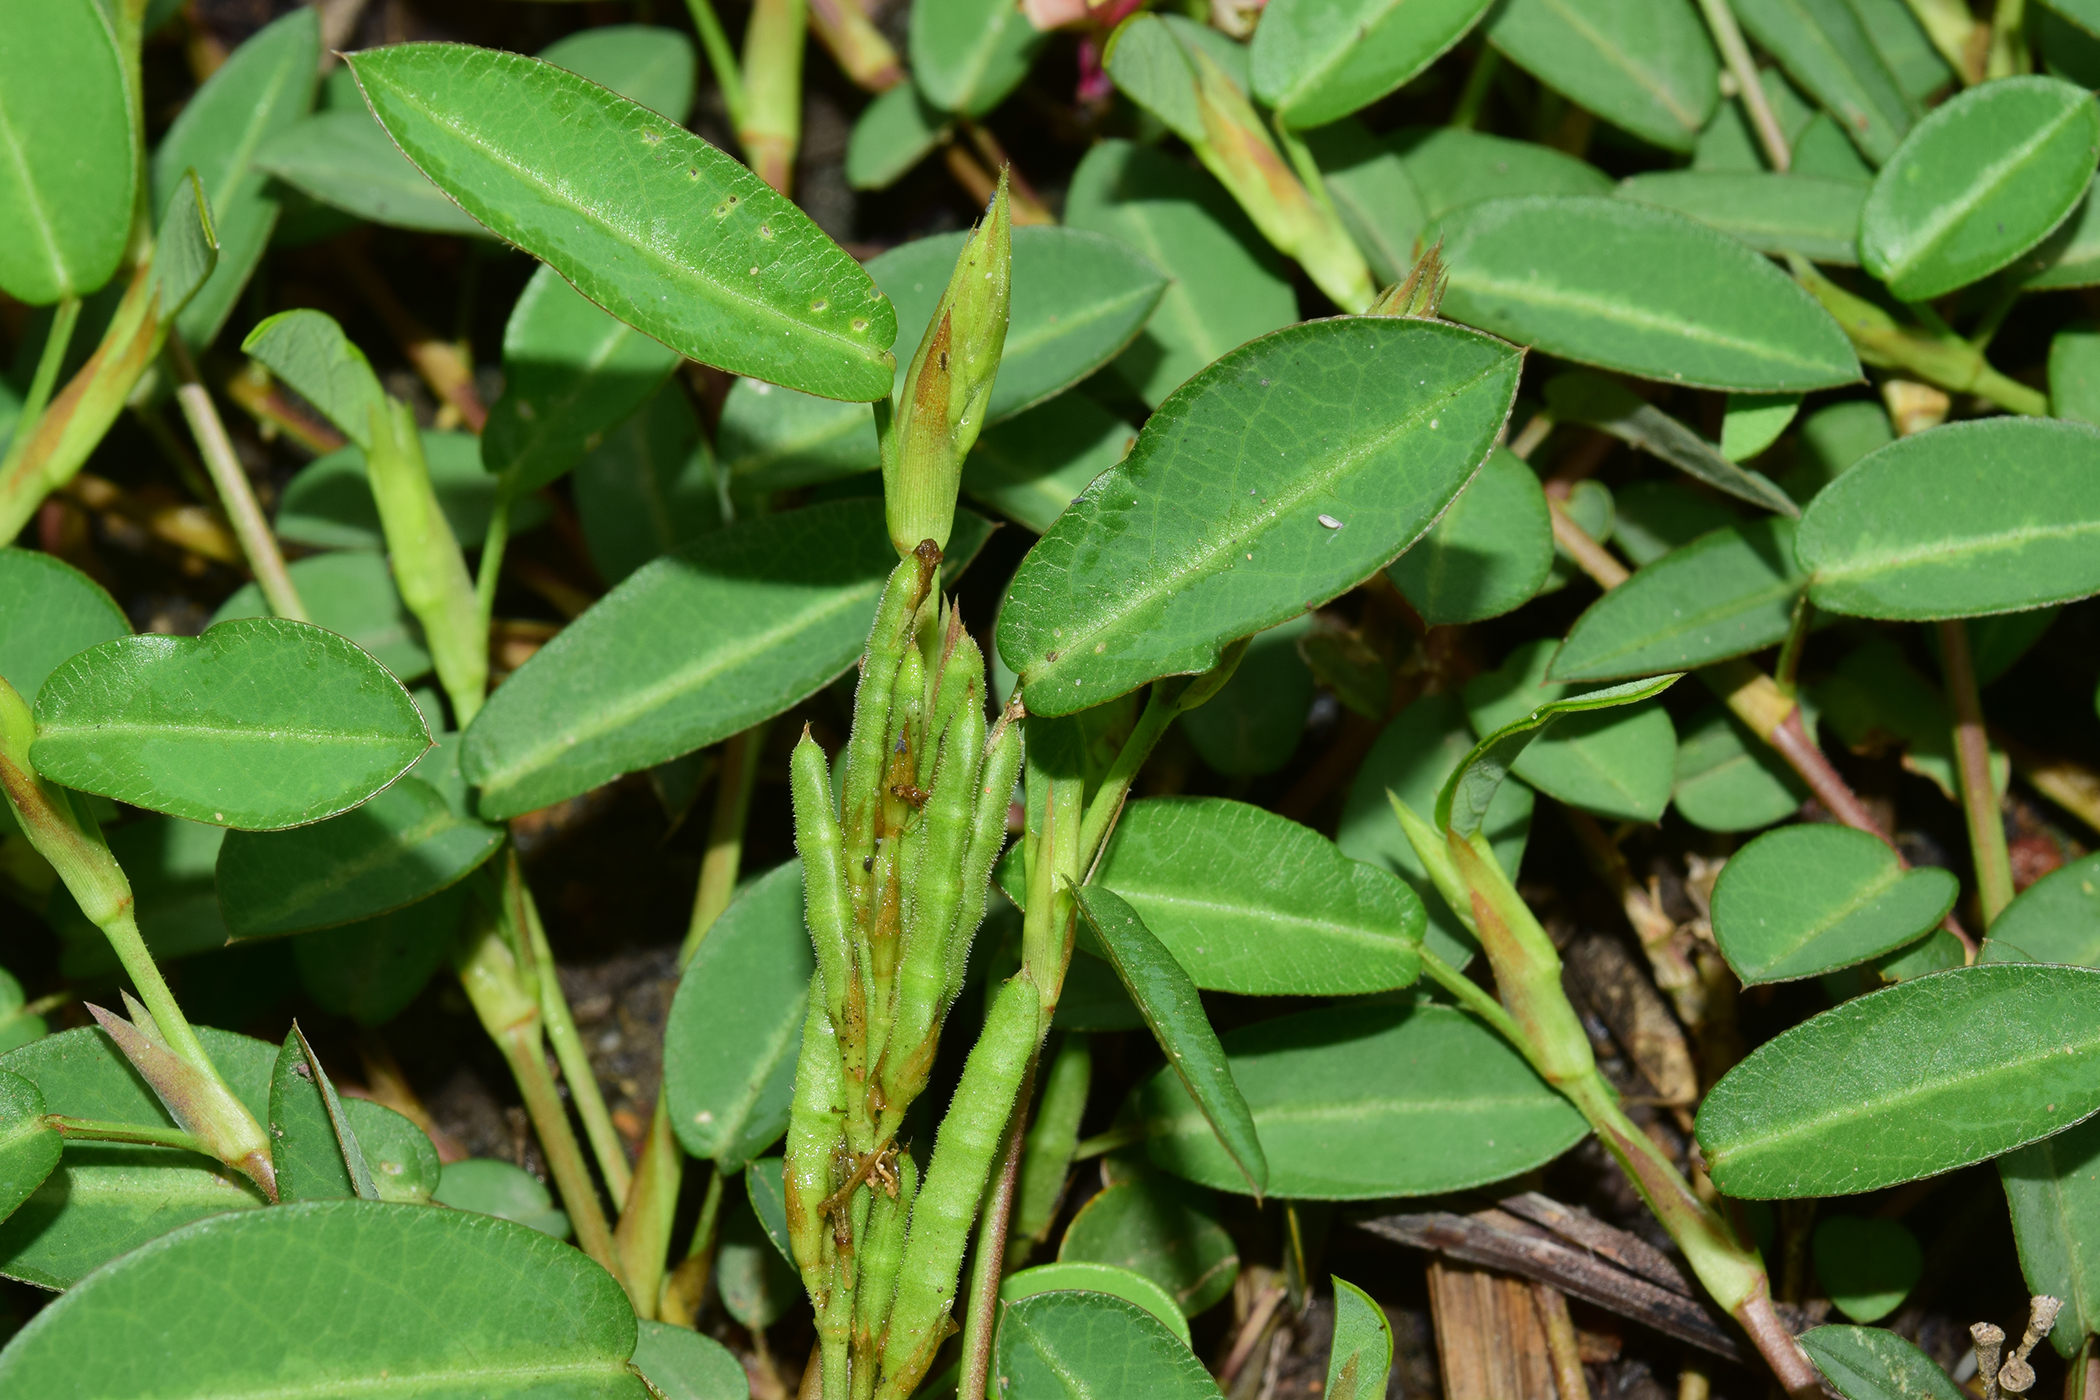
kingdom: Plantae
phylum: Tracheophyta
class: Magnoliopsida
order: Fabales
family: Fabaceae
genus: Alysicarpus
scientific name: Alysicarpus vaginalis
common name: White moneywort
